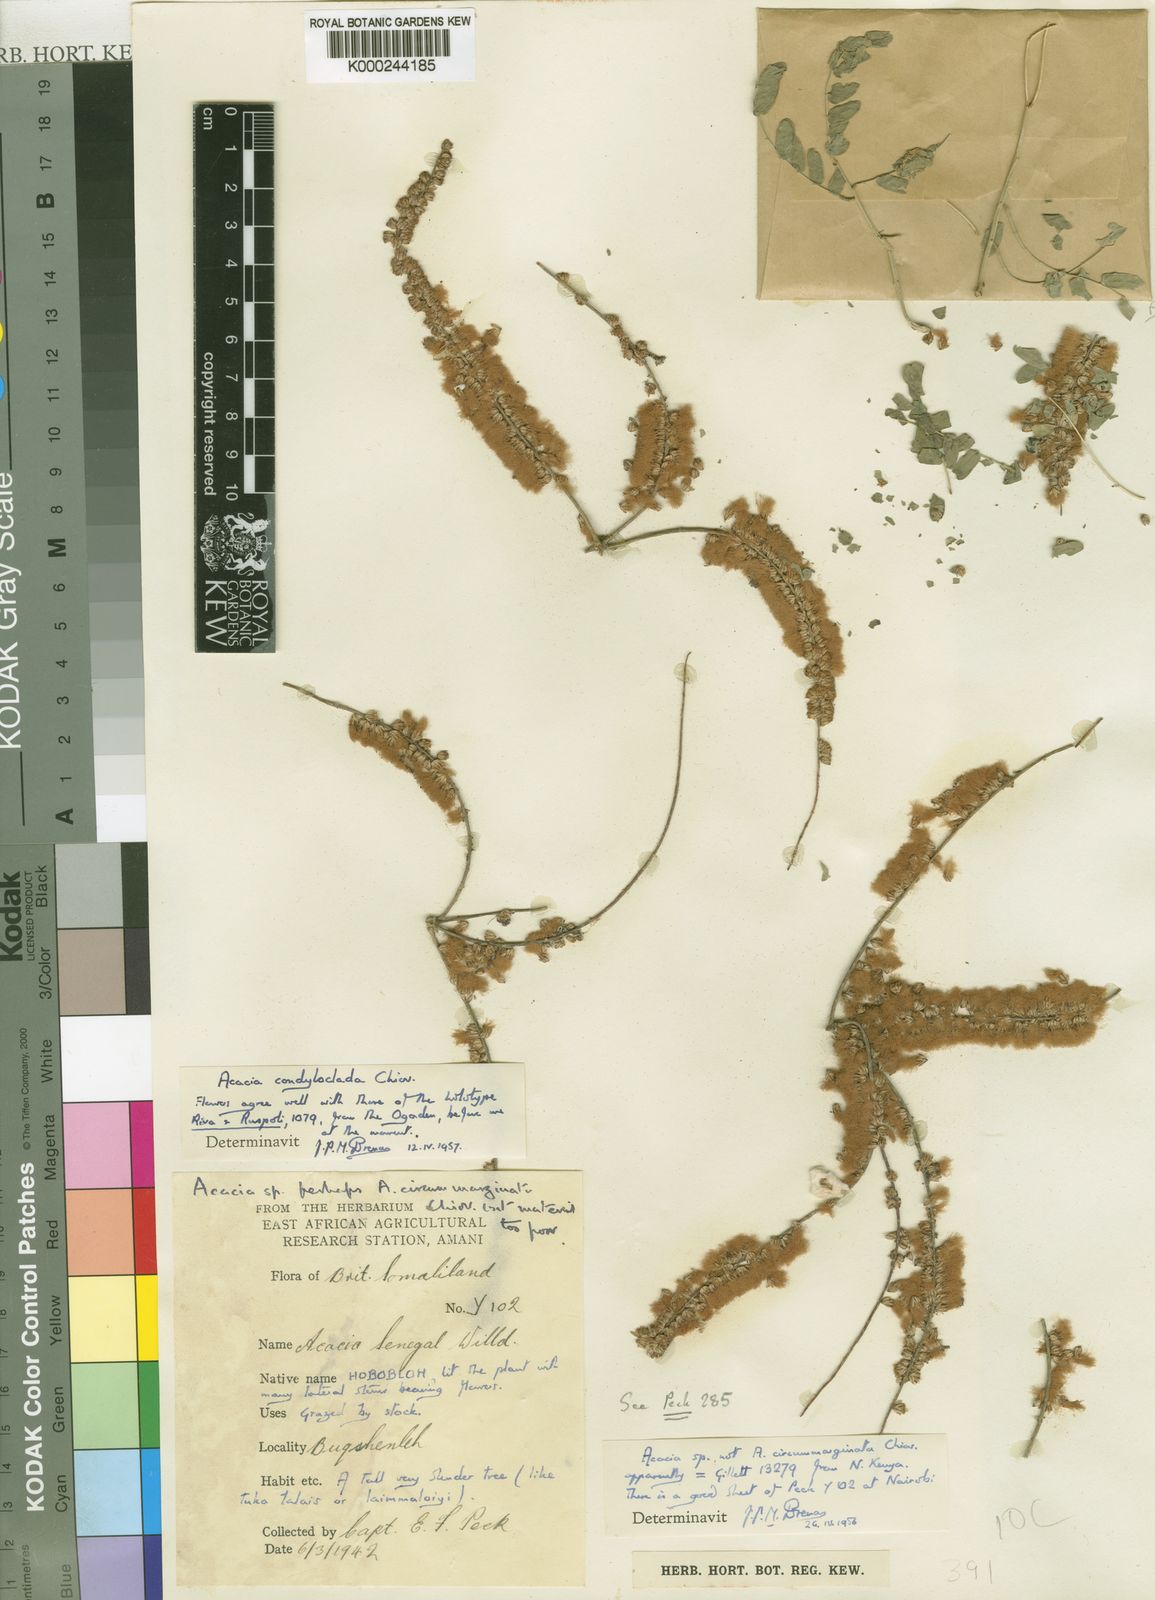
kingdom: Plantae
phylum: Tracheophyta
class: Magnoliopsida
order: Fabales
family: Fabaceae
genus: Acacia
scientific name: Acacia
